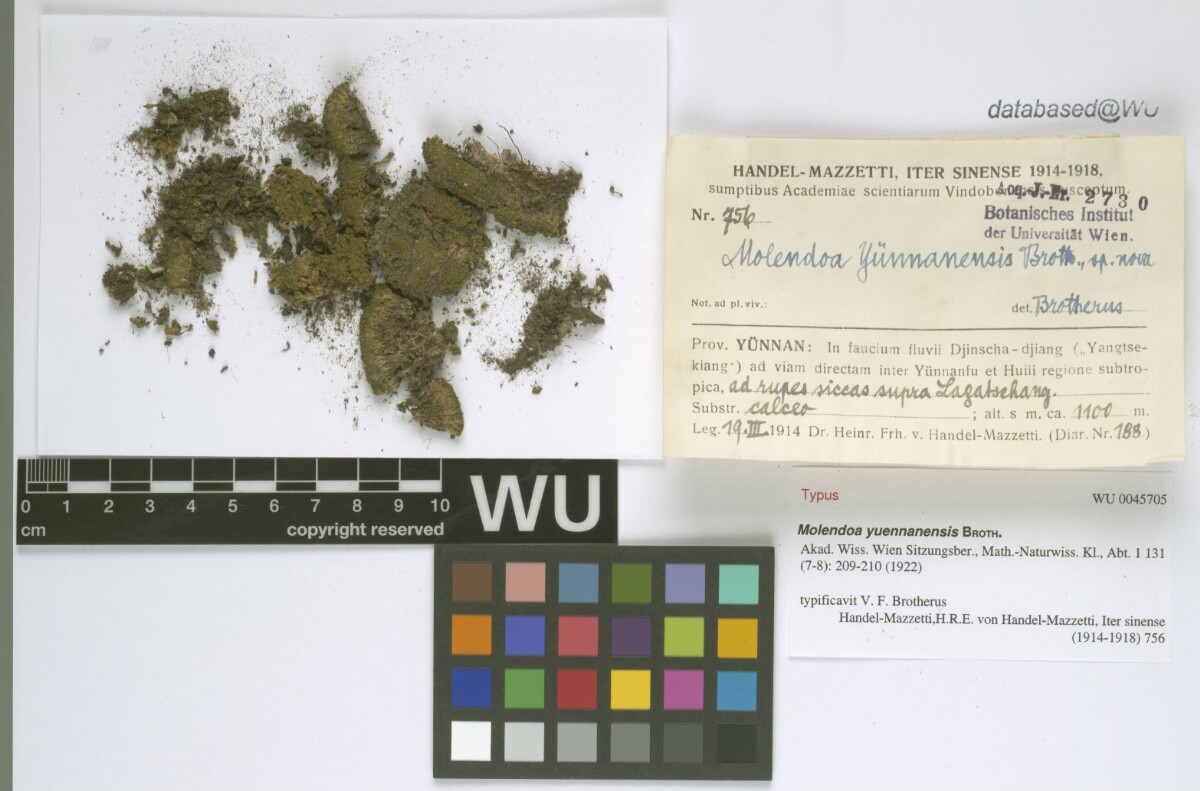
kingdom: Plantae
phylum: Bryophyta
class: Bryopsida
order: Pottiales
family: Pottiaceae
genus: Molendoa
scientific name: Molendoa sendtneriana
